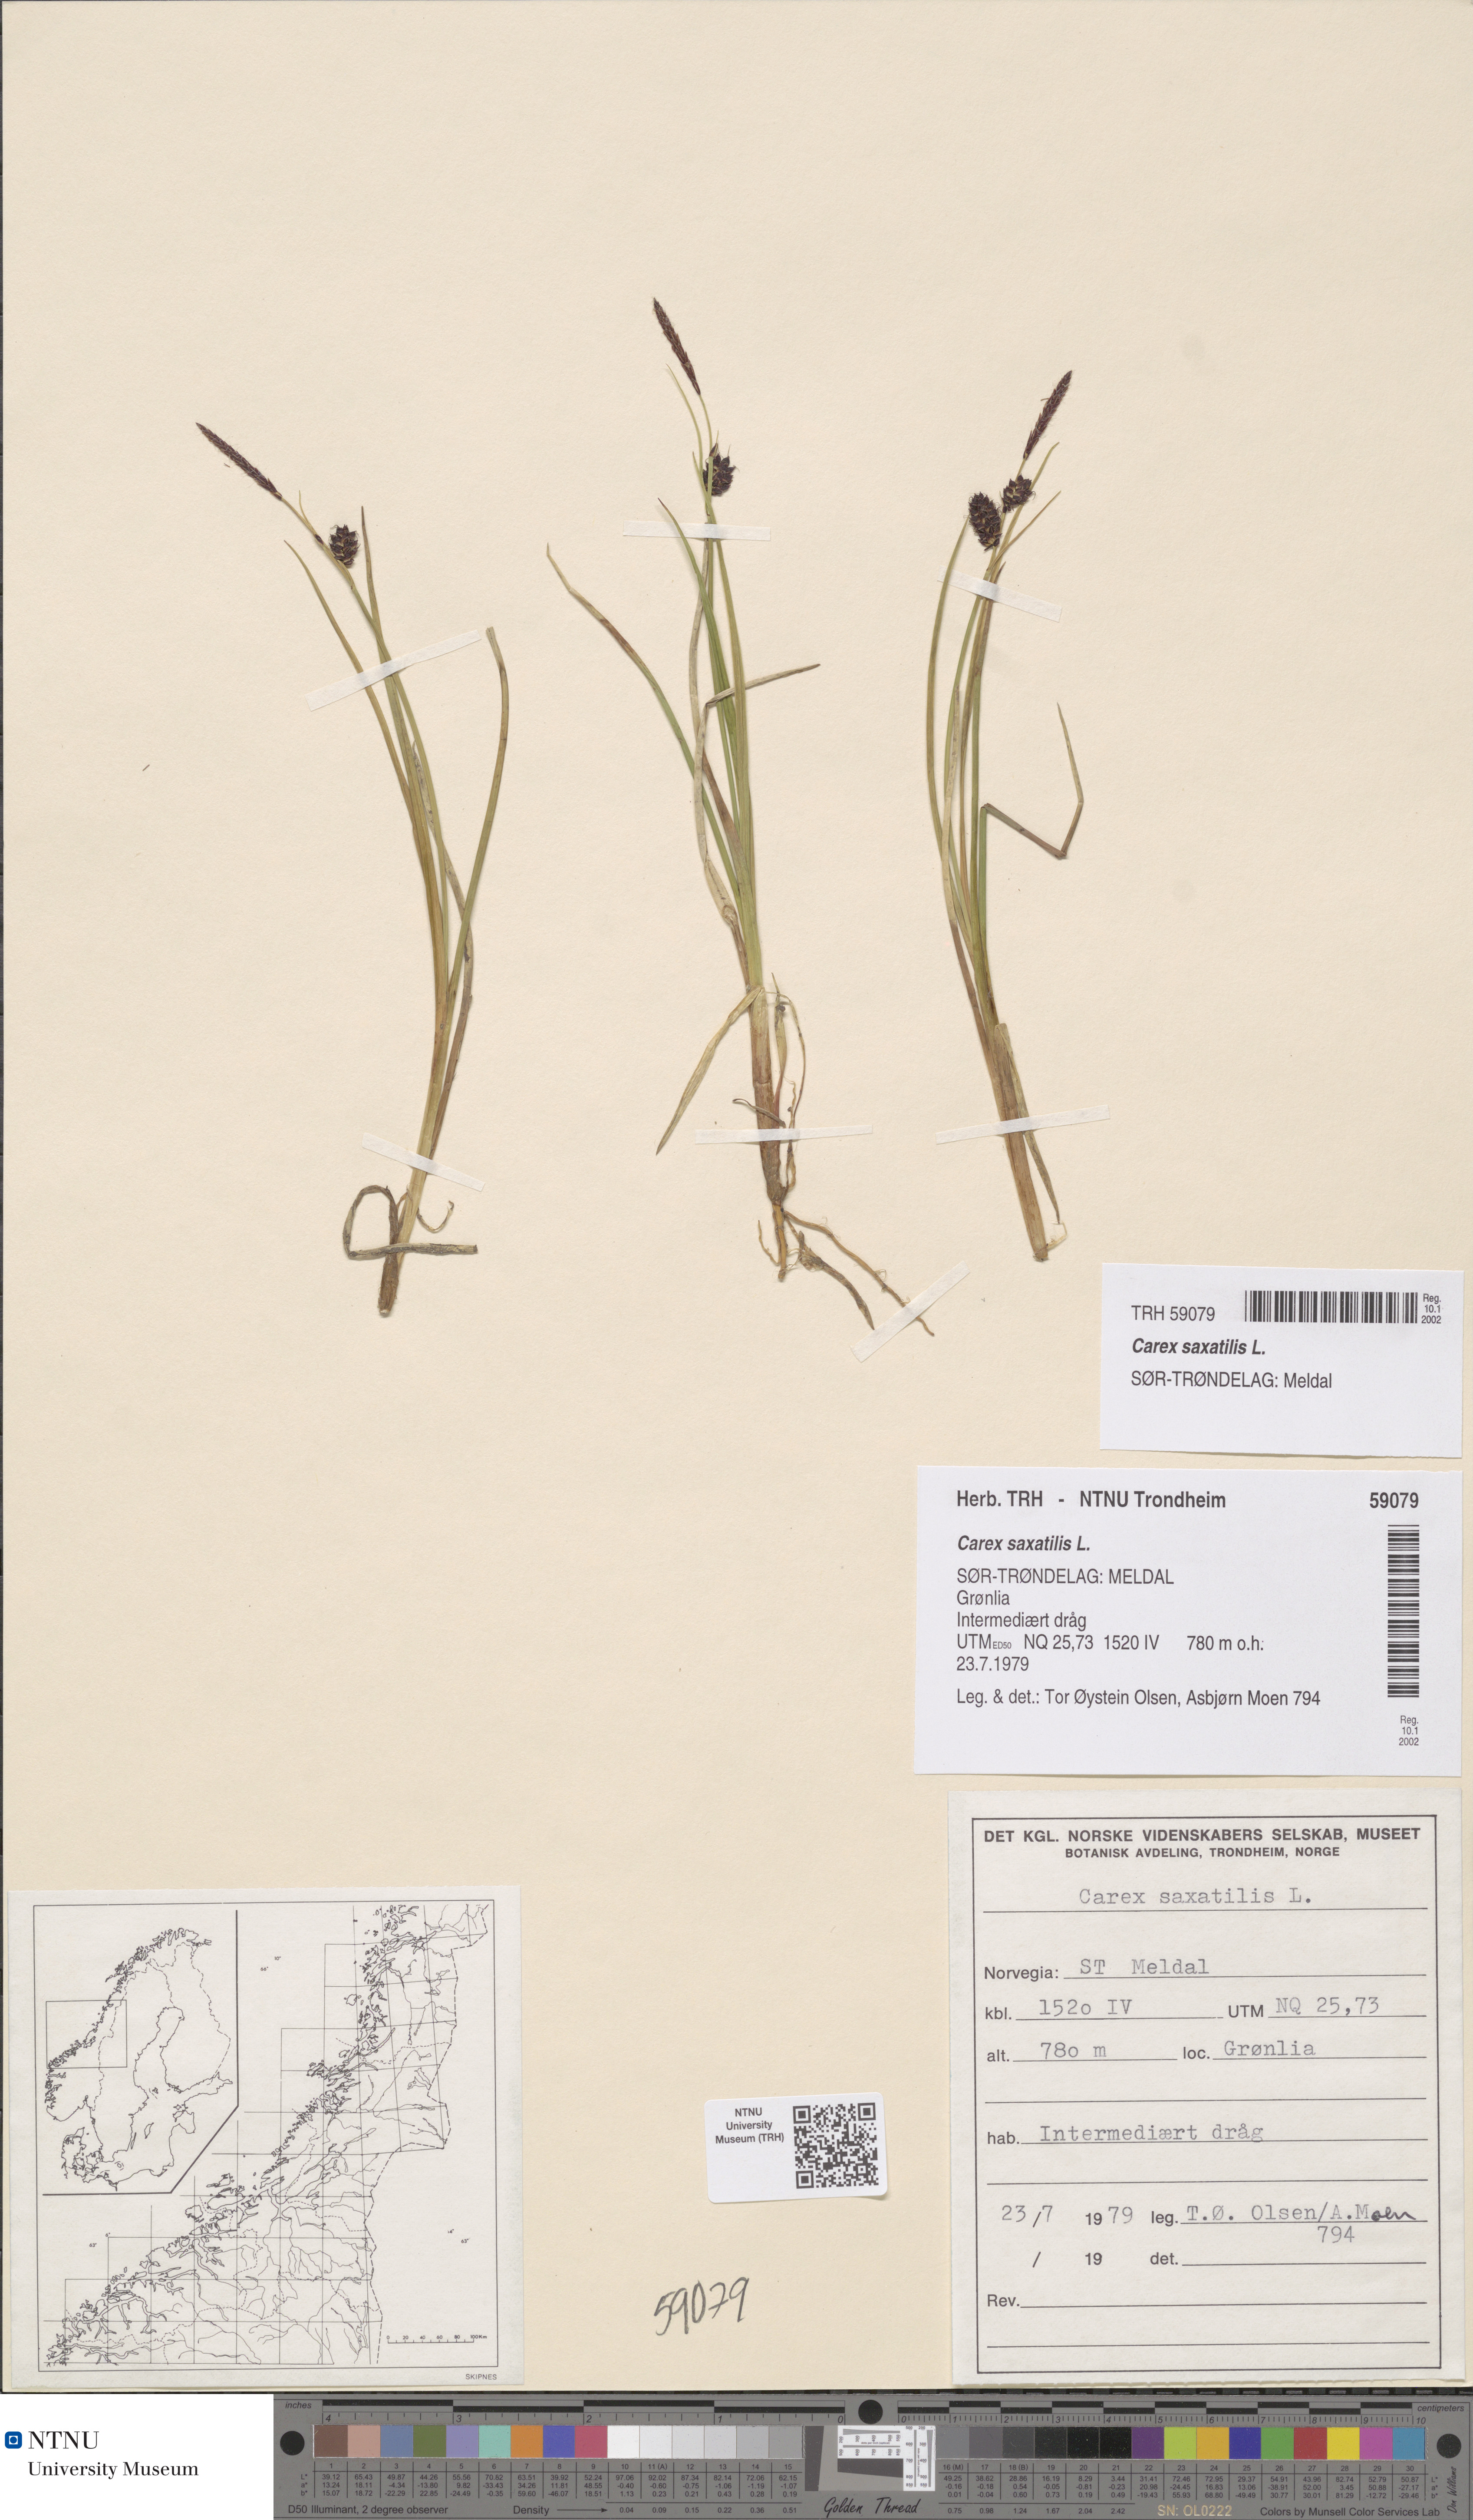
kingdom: Plantae
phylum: Tracheophyta
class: Liliopsida
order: Poales
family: Cyperaceae
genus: Carex
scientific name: Carex saxatilis
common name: Russet sedge
